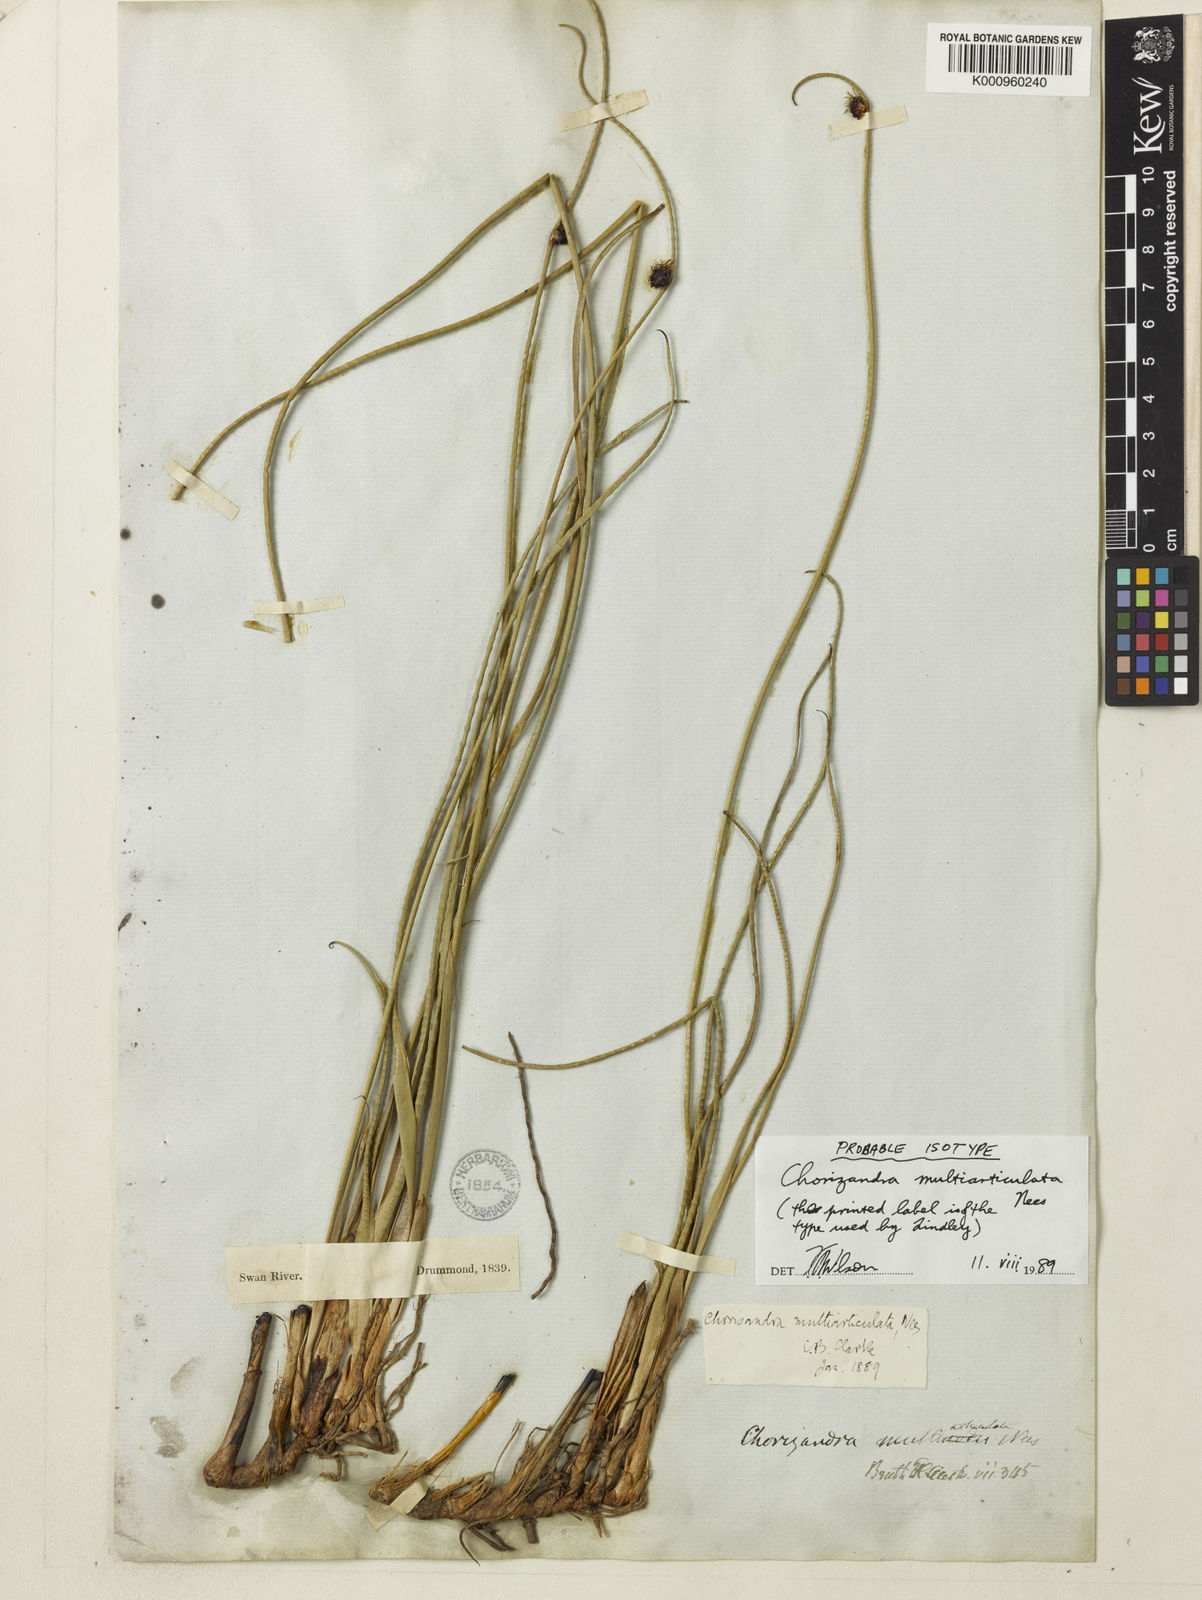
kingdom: Plantae
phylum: Tracheophyta
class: Liliopsida
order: Poales
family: Cyperaceae
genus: Chorizandra
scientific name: Chorizandra multiarticulata
